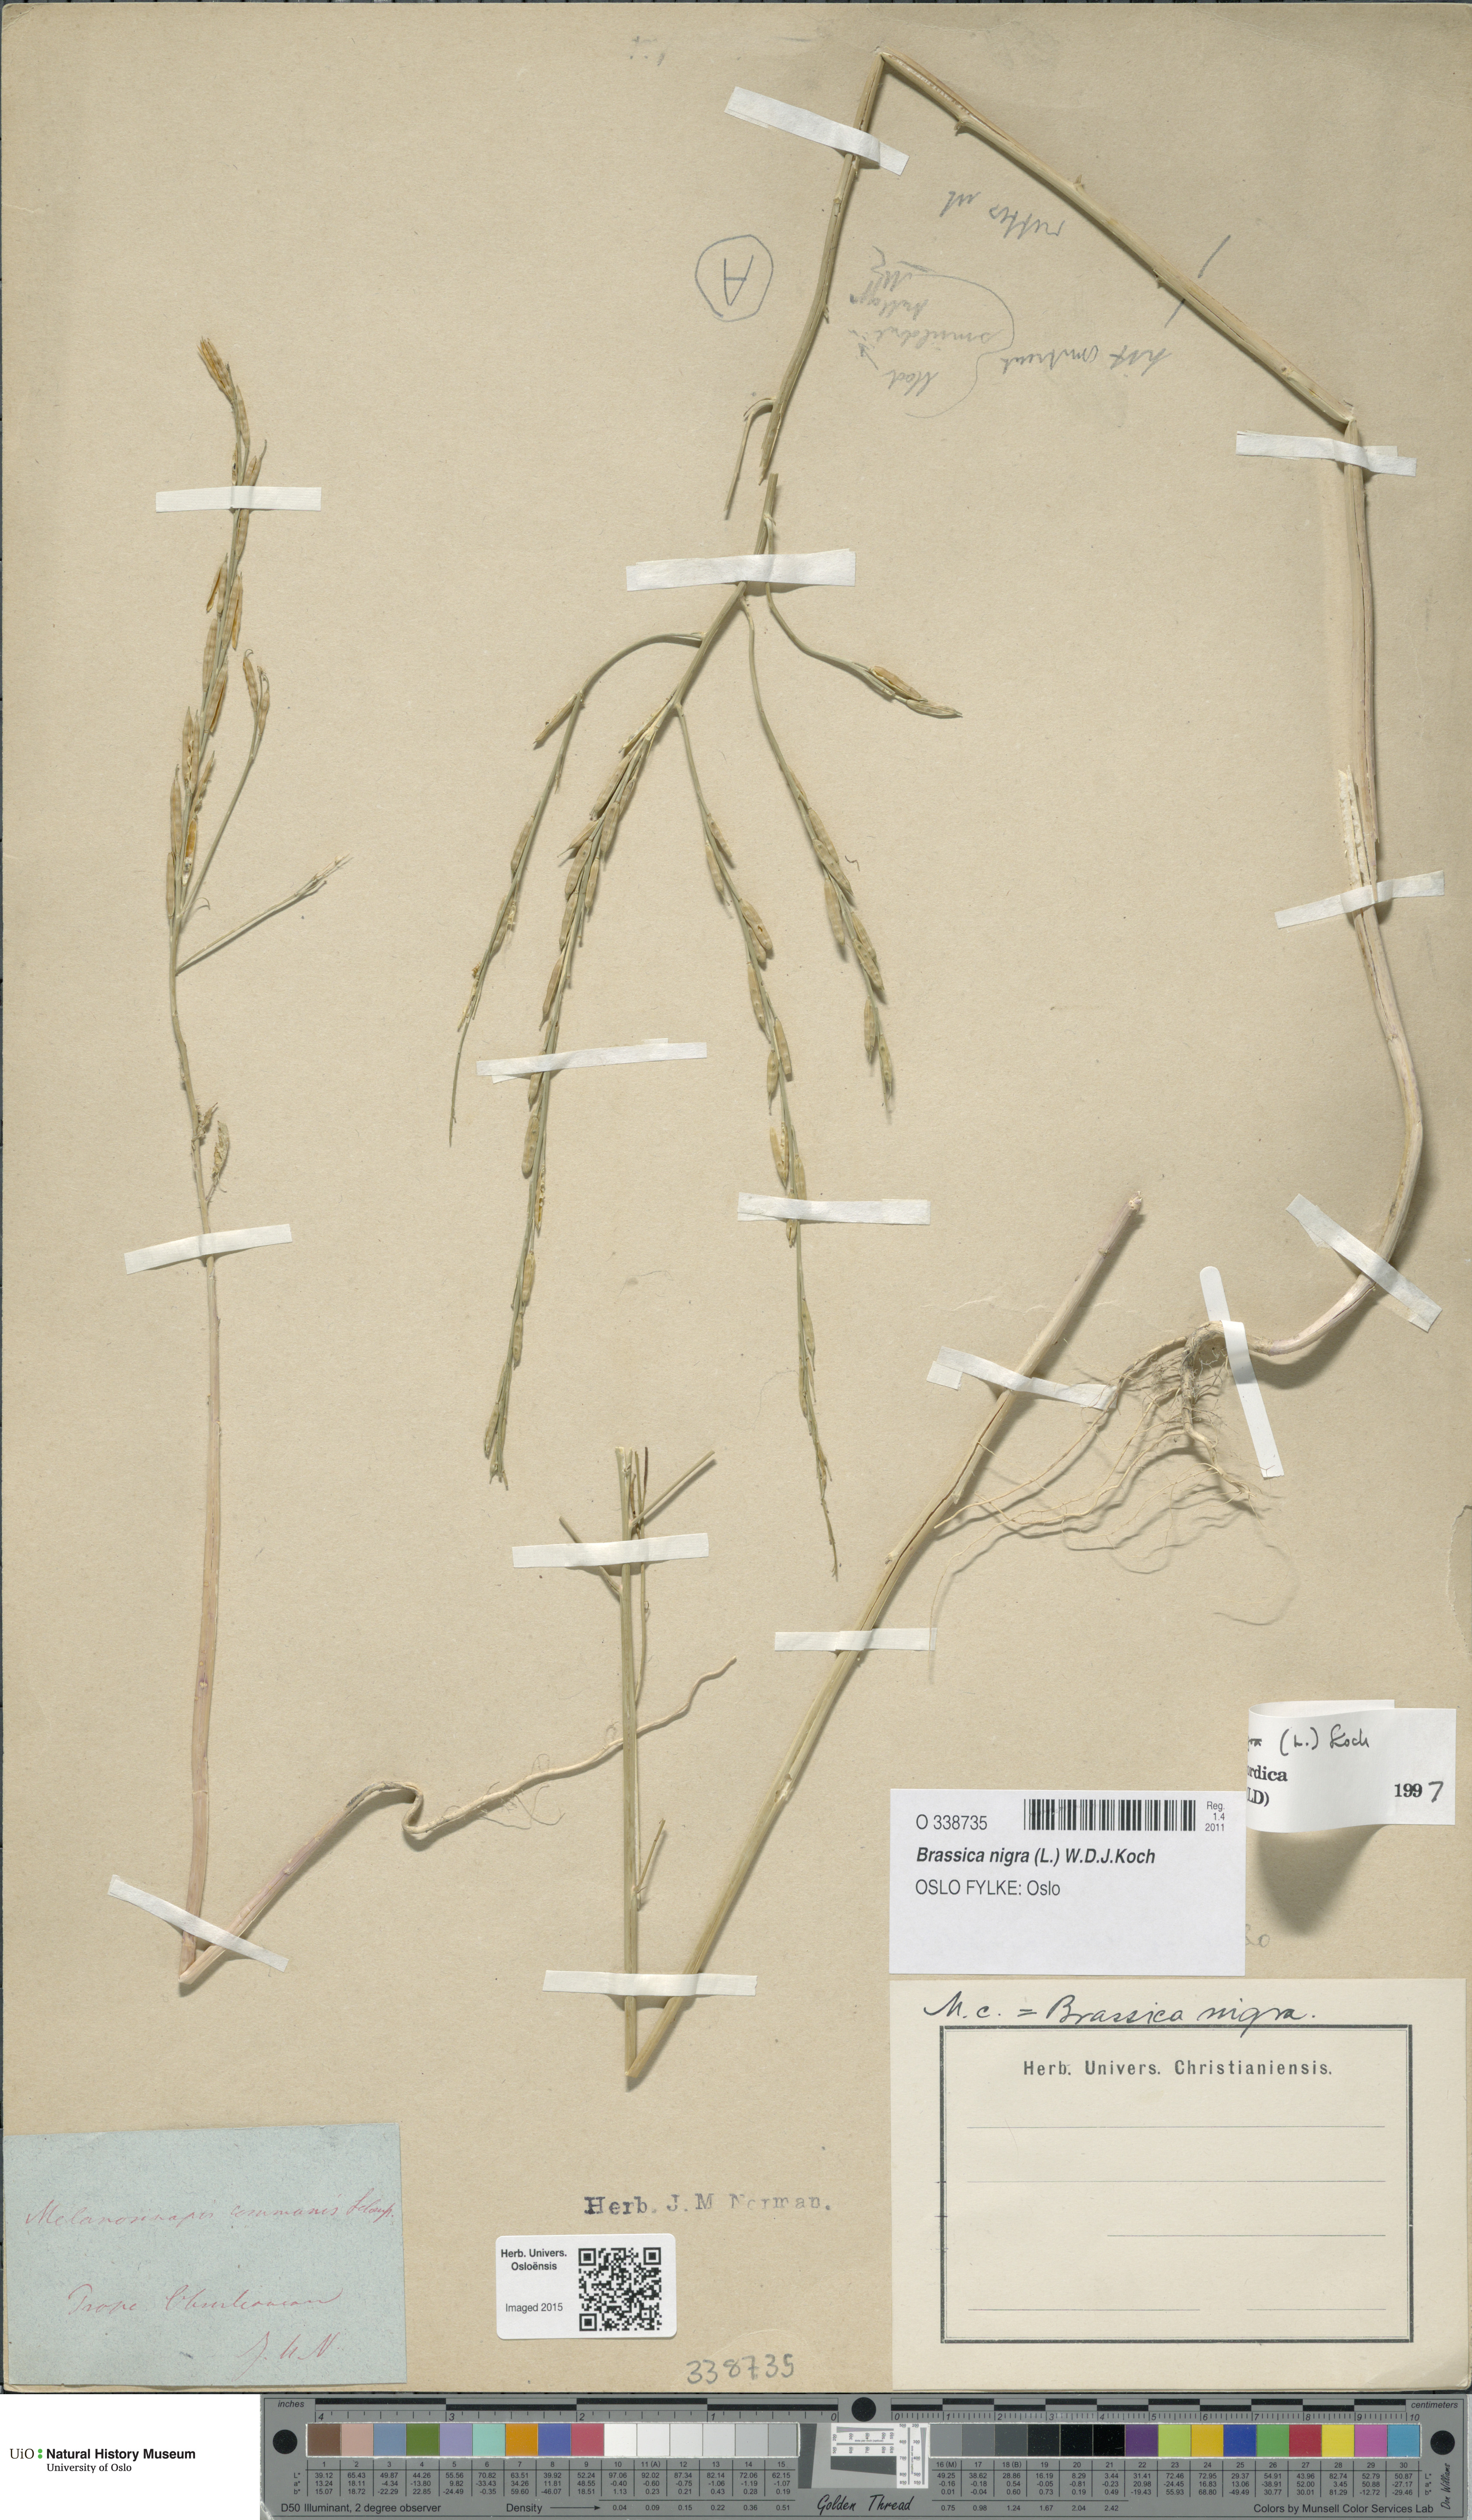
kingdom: Plantae
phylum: Tracheophyta
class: Magnoliopsida
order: Brassicales
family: Brassicaceae
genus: Brassica
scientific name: Brassica nigra
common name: Black mustard
